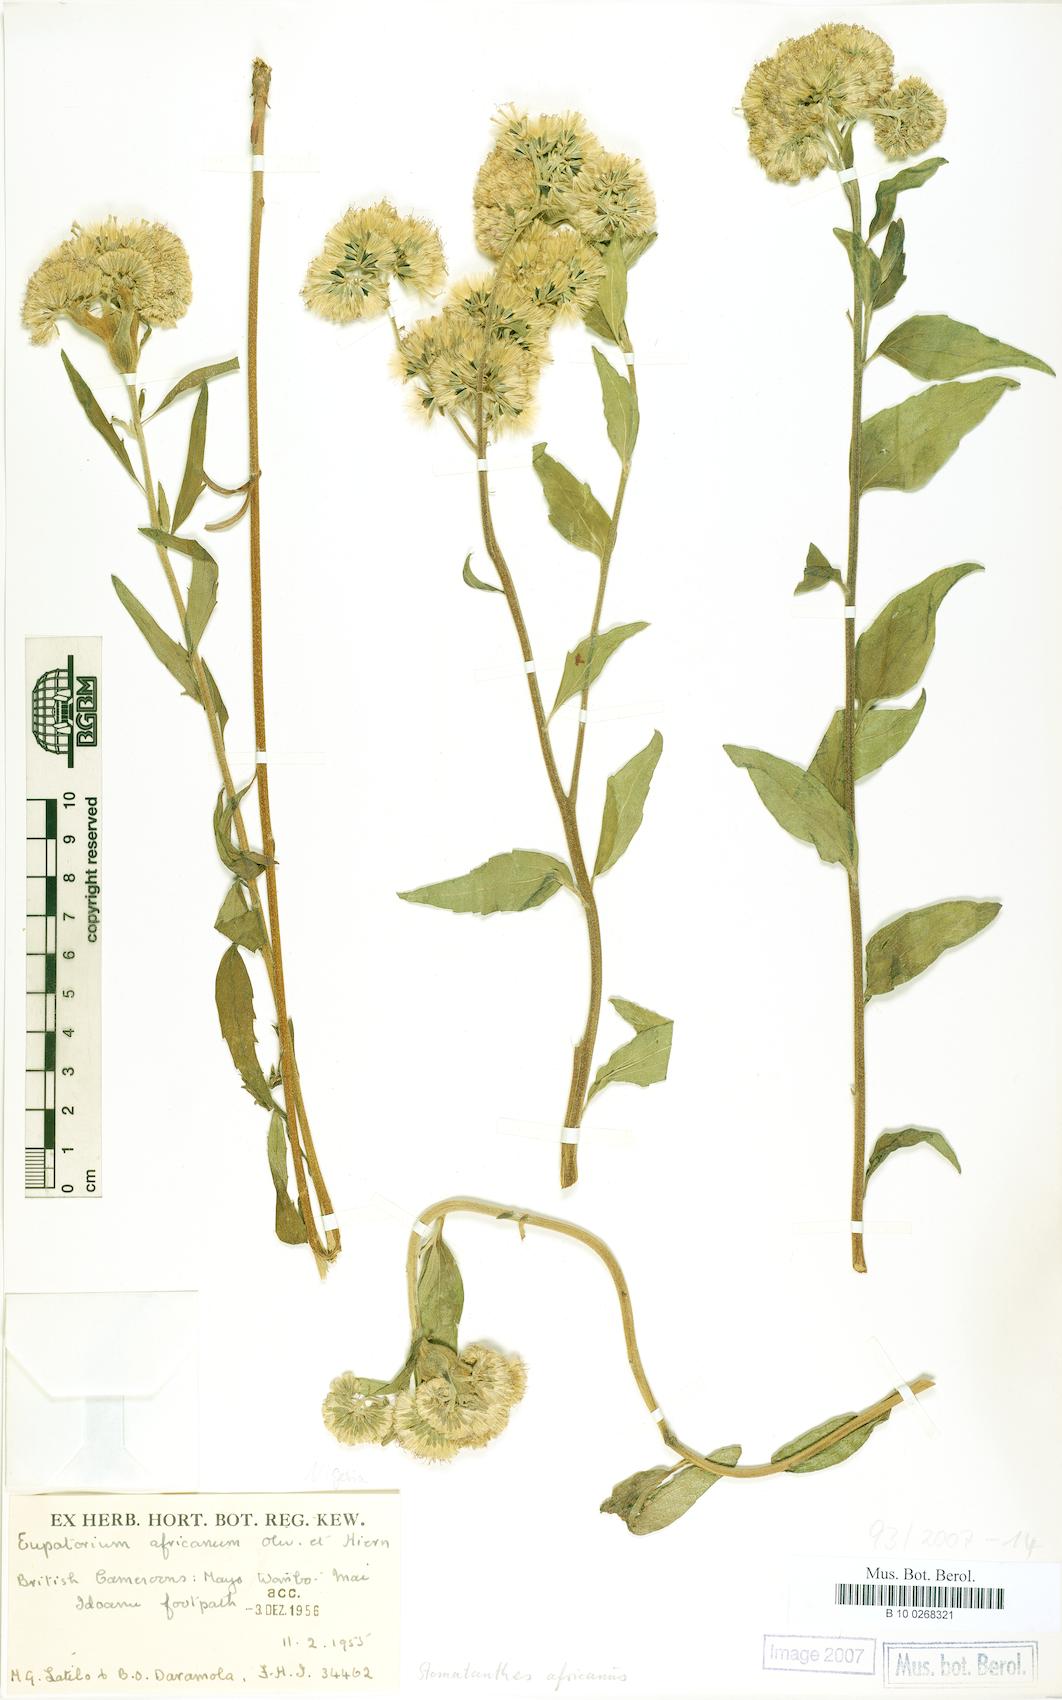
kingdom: Plantae
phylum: Tracheophyta
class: Magnoliopsida
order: Asterales
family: Asteraceae
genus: Stomatanthes
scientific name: Stomatanthes africanus
